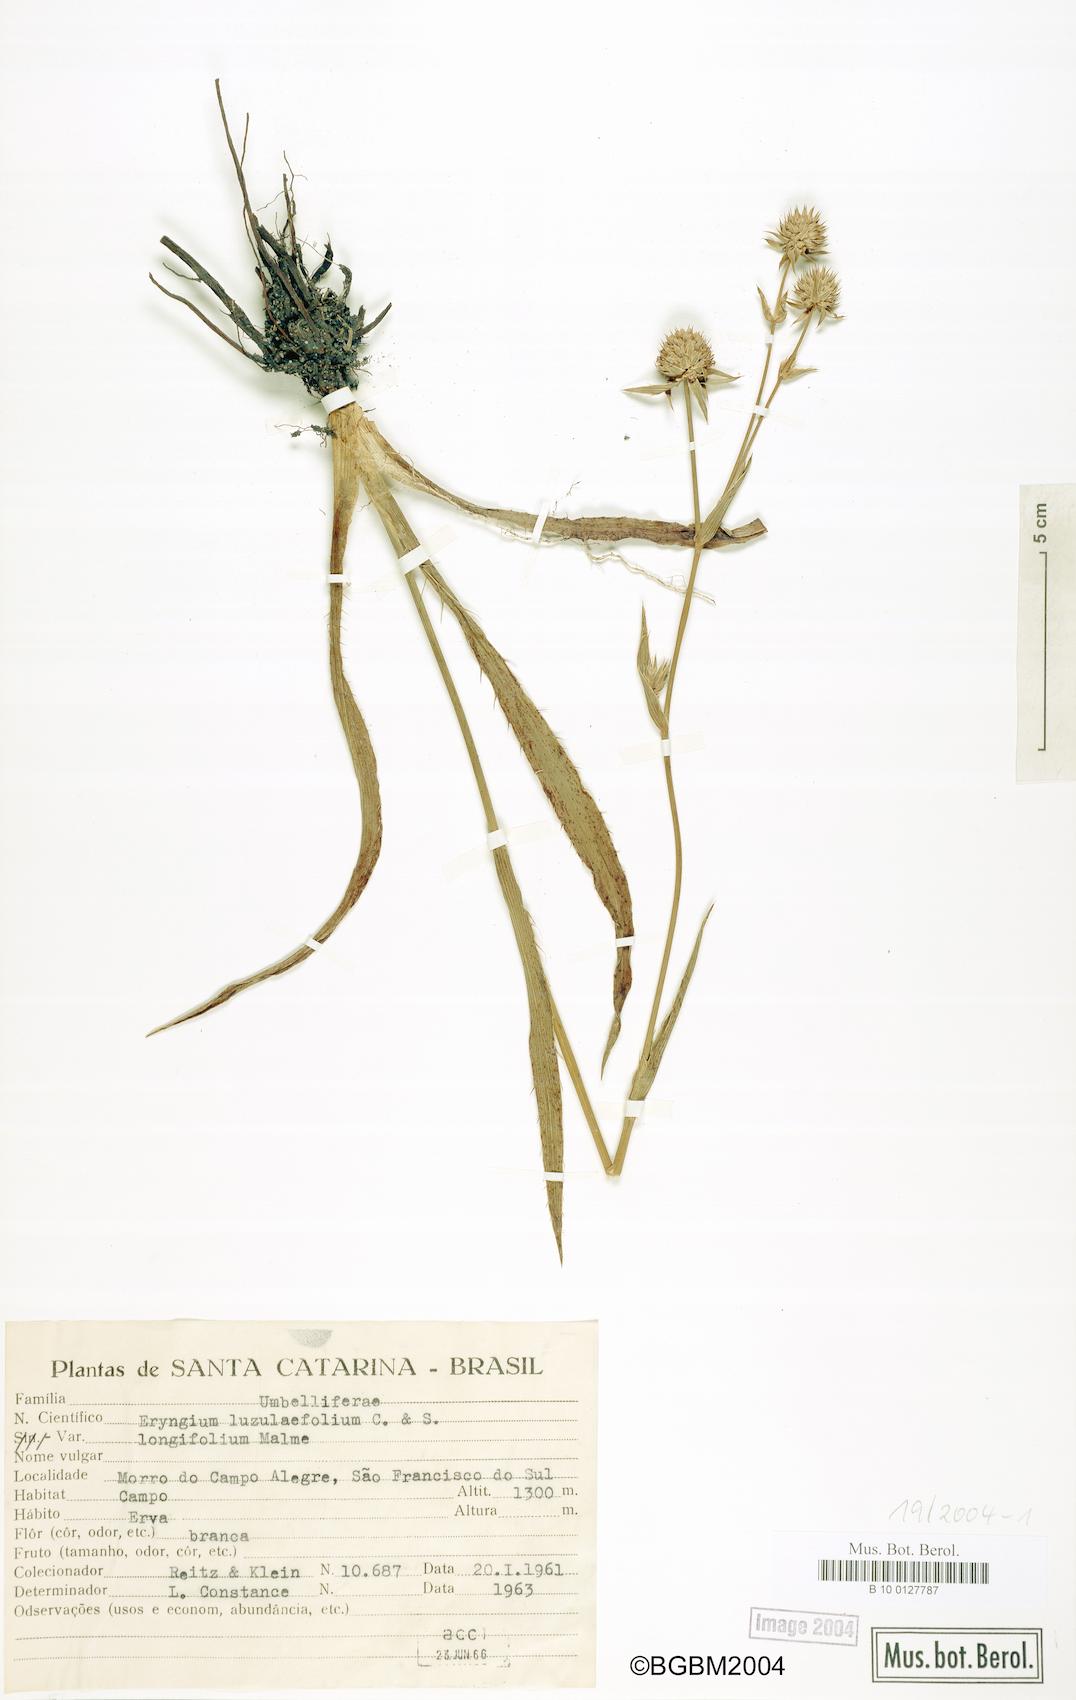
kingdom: Plantae
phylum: Tracheophyta
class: Magnoliopsida
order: Apiales
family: Apiaceae
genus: Eryngium
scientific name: Eryngium subinerme
